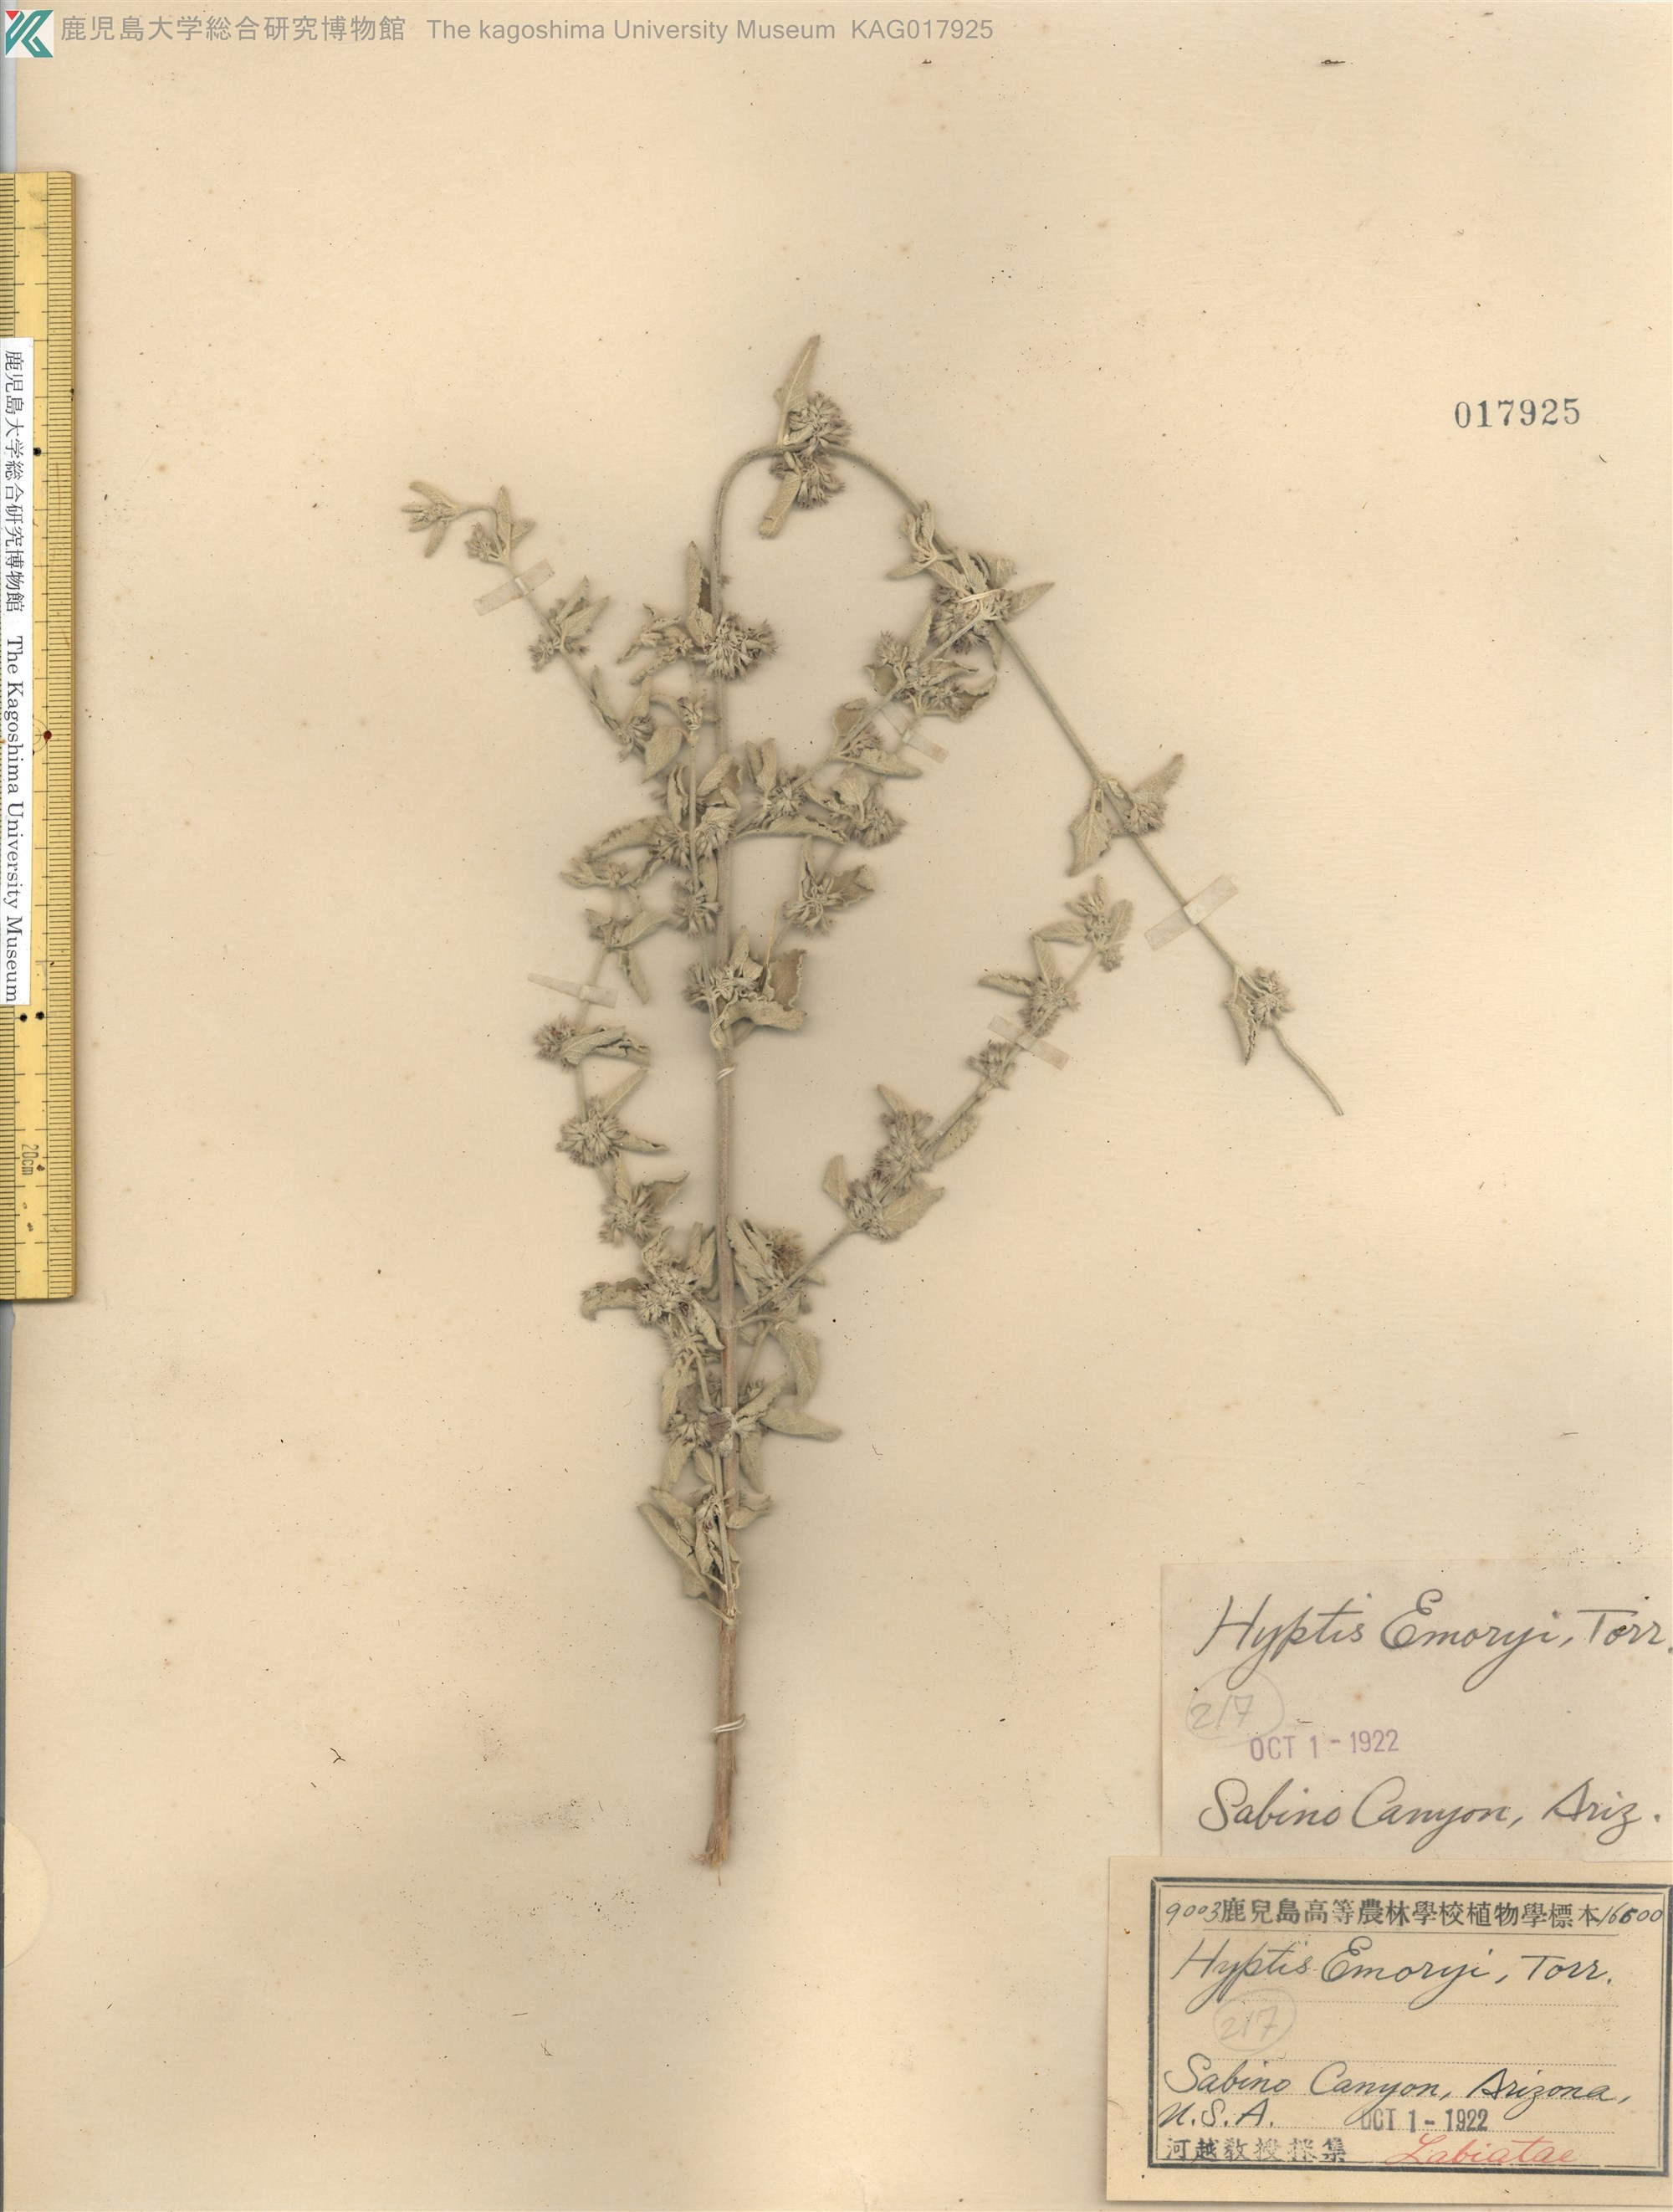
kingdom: Plantae
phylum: Tracheophyta
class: Magnoliopsida
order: Lamiales
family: Lamiaceae
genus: Condea
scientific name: Condea emoryi
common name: Chia
